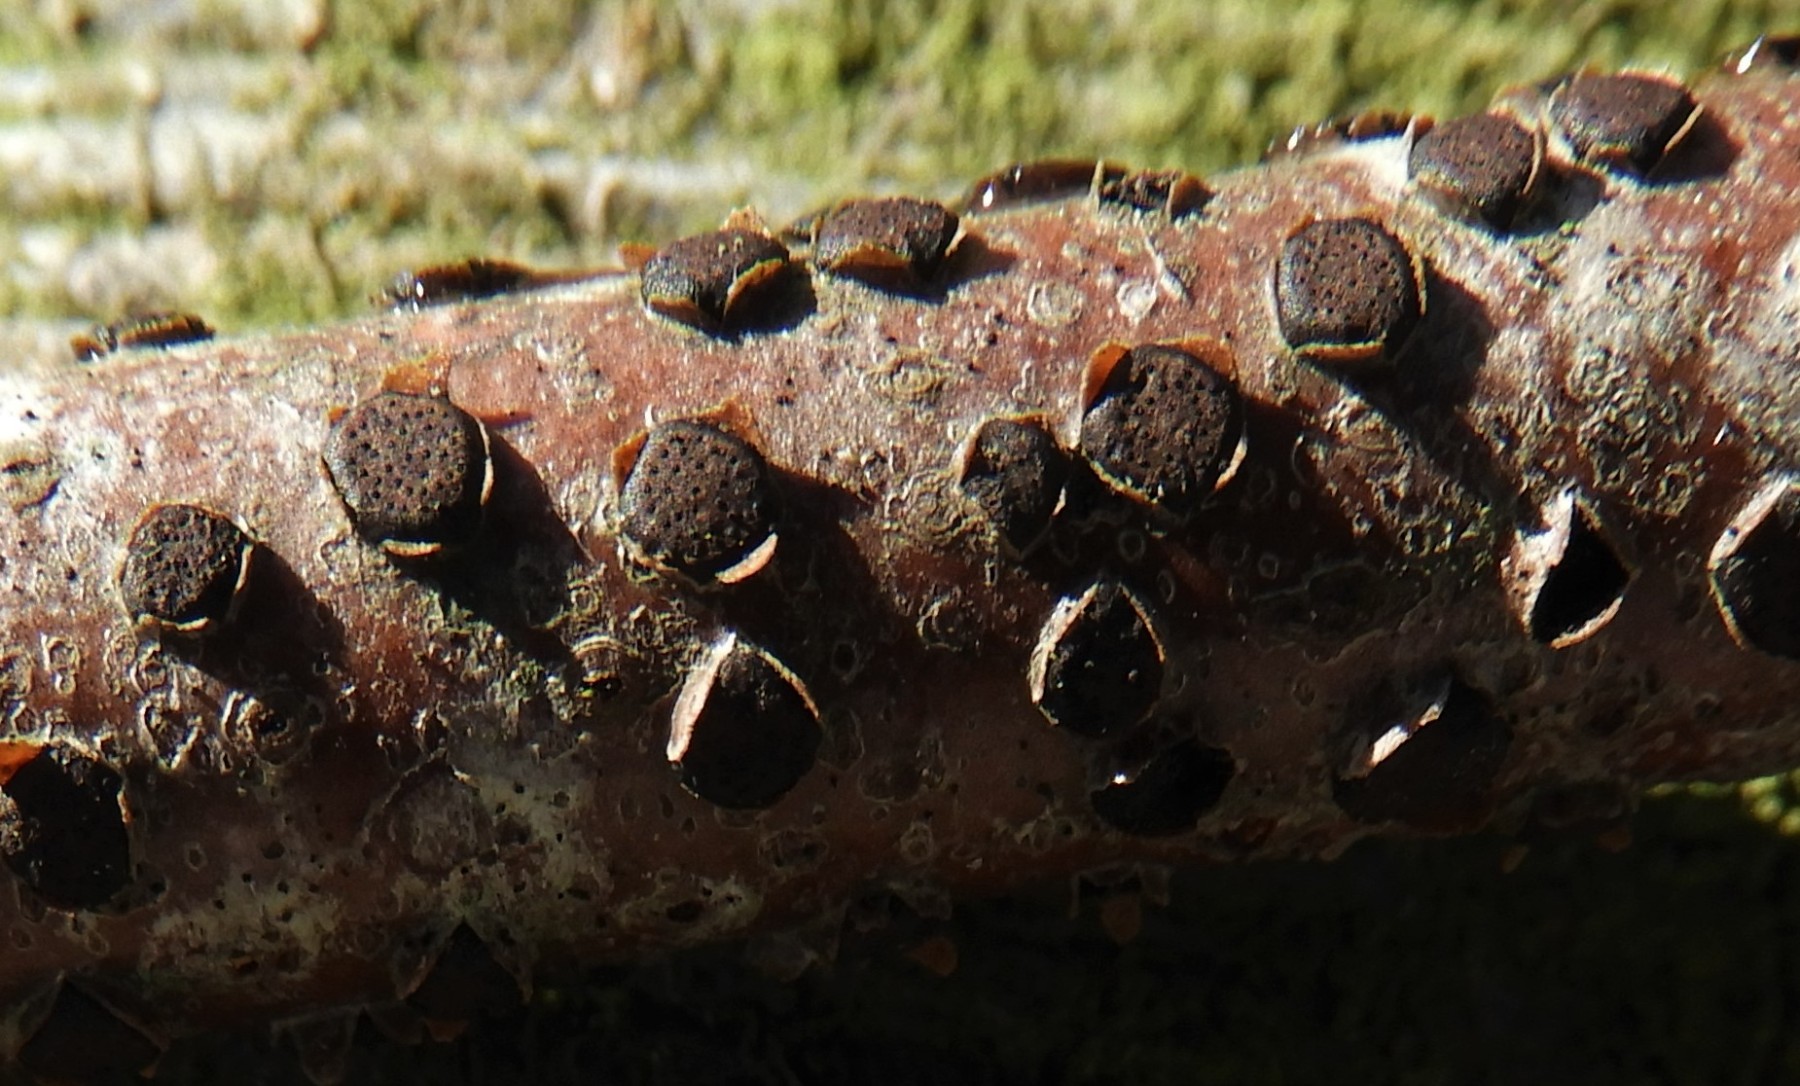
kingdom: Fungi
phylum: Ascomycota
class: Sordariomycetes
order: Xylariales
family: Diatrypaceae
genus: Diatrype
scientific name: Diatrype disciformis
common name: kant-kulskorpe
